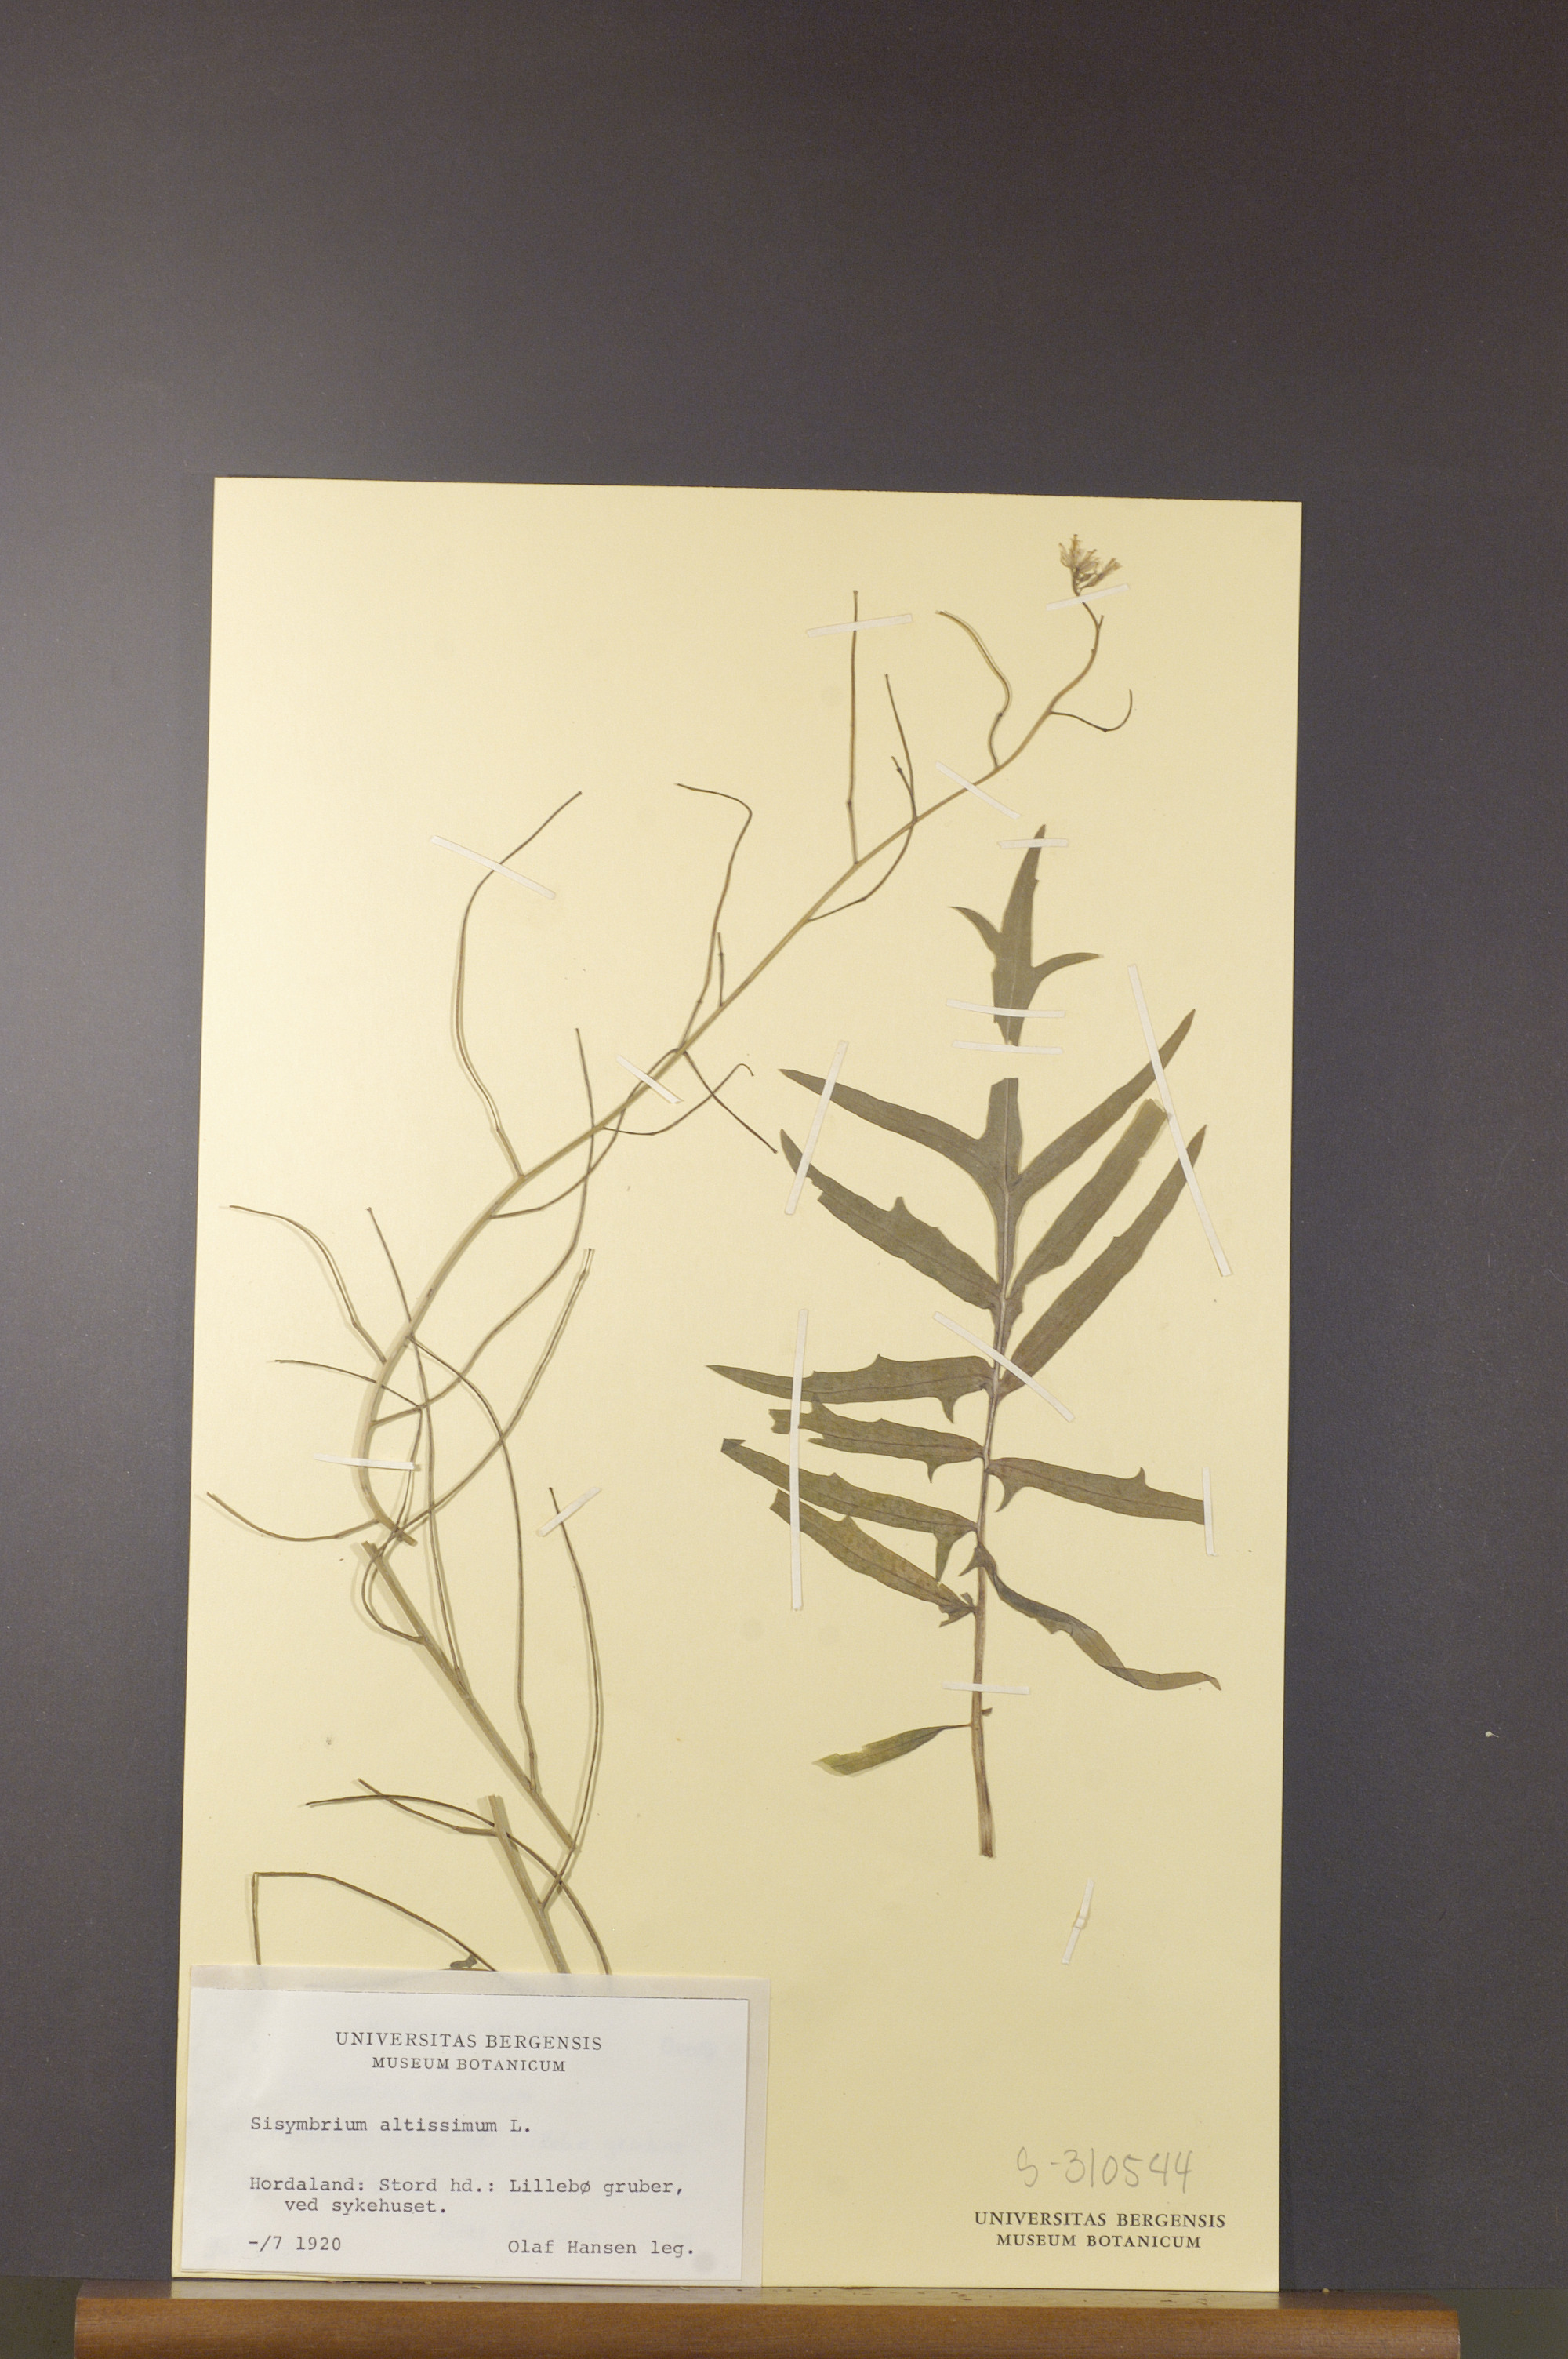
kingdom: Plantae
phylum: Tracheophyta
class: Magnoliopsida
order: Brassicales
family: Brassicaceae
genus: Sisymbrium
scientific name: Sisymbrium altissimum
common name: Tall rocket
